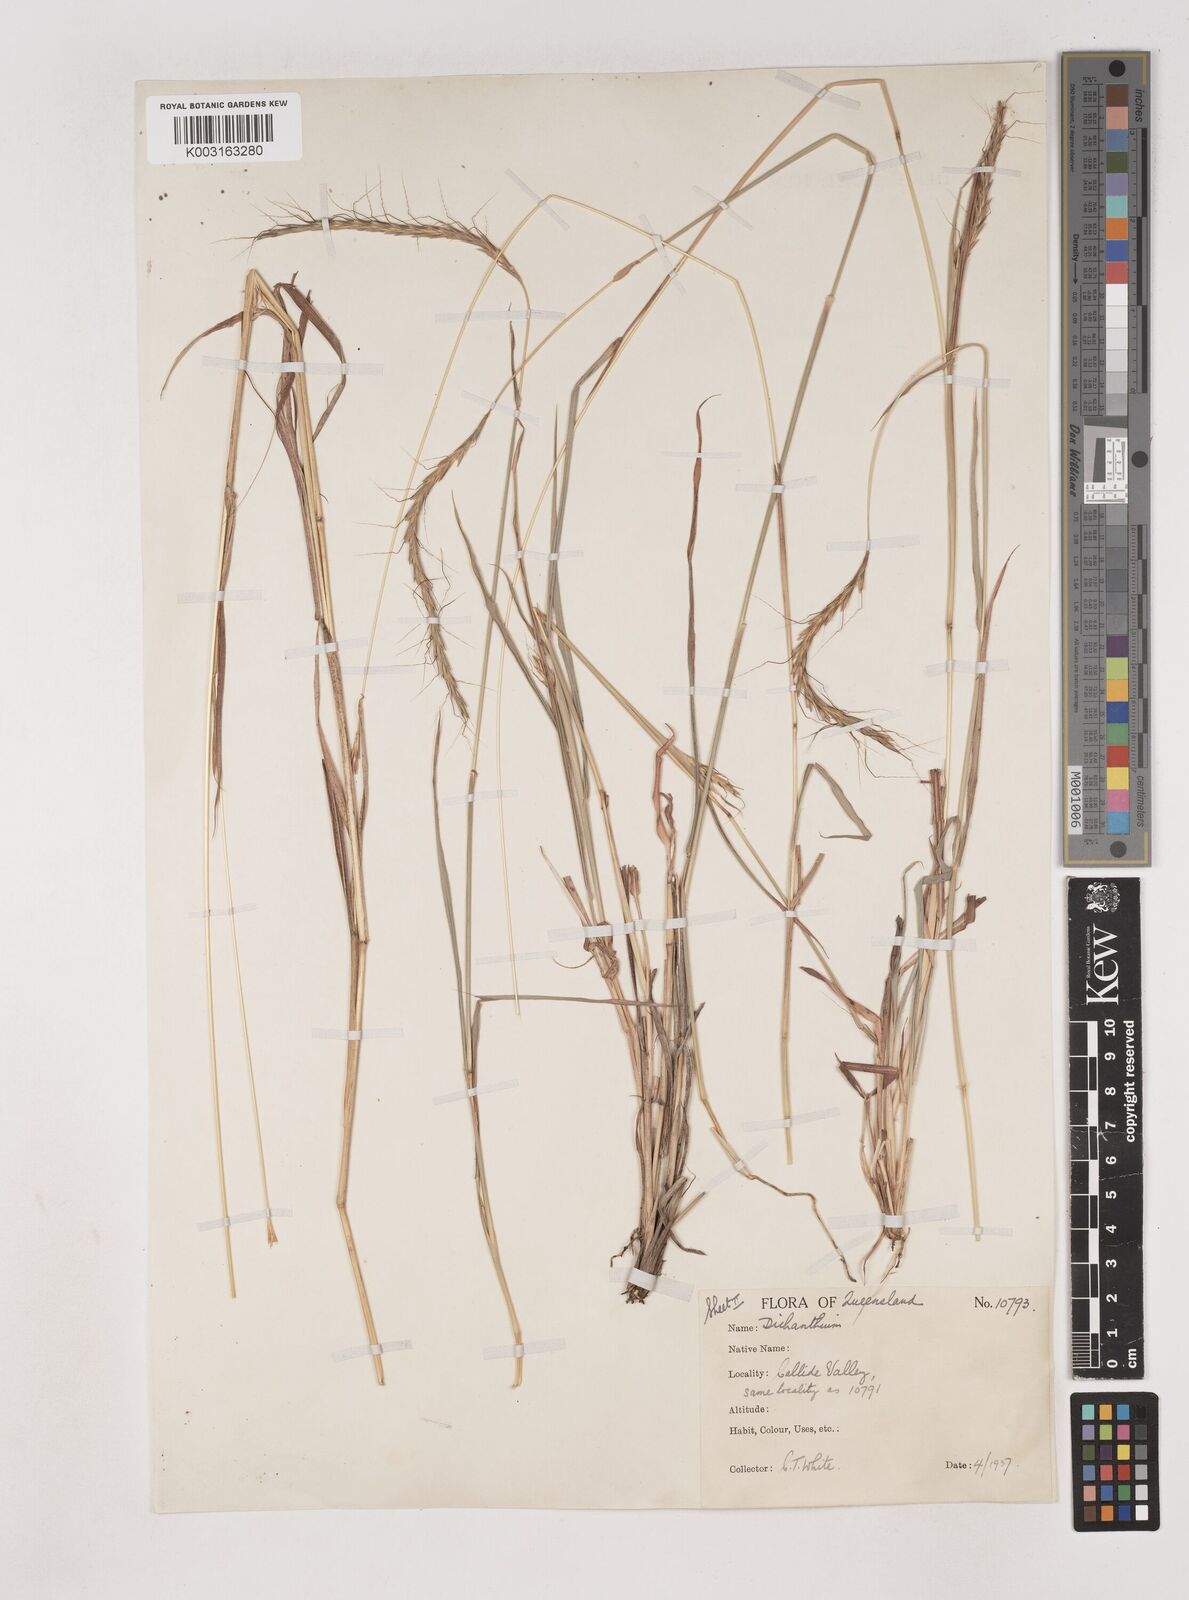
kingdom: Plantae
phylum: Tracheophyta
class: Liliopsida
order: Poales
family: Poaceae
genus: Dichanthium
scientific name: Dichanthium queenslandicum
